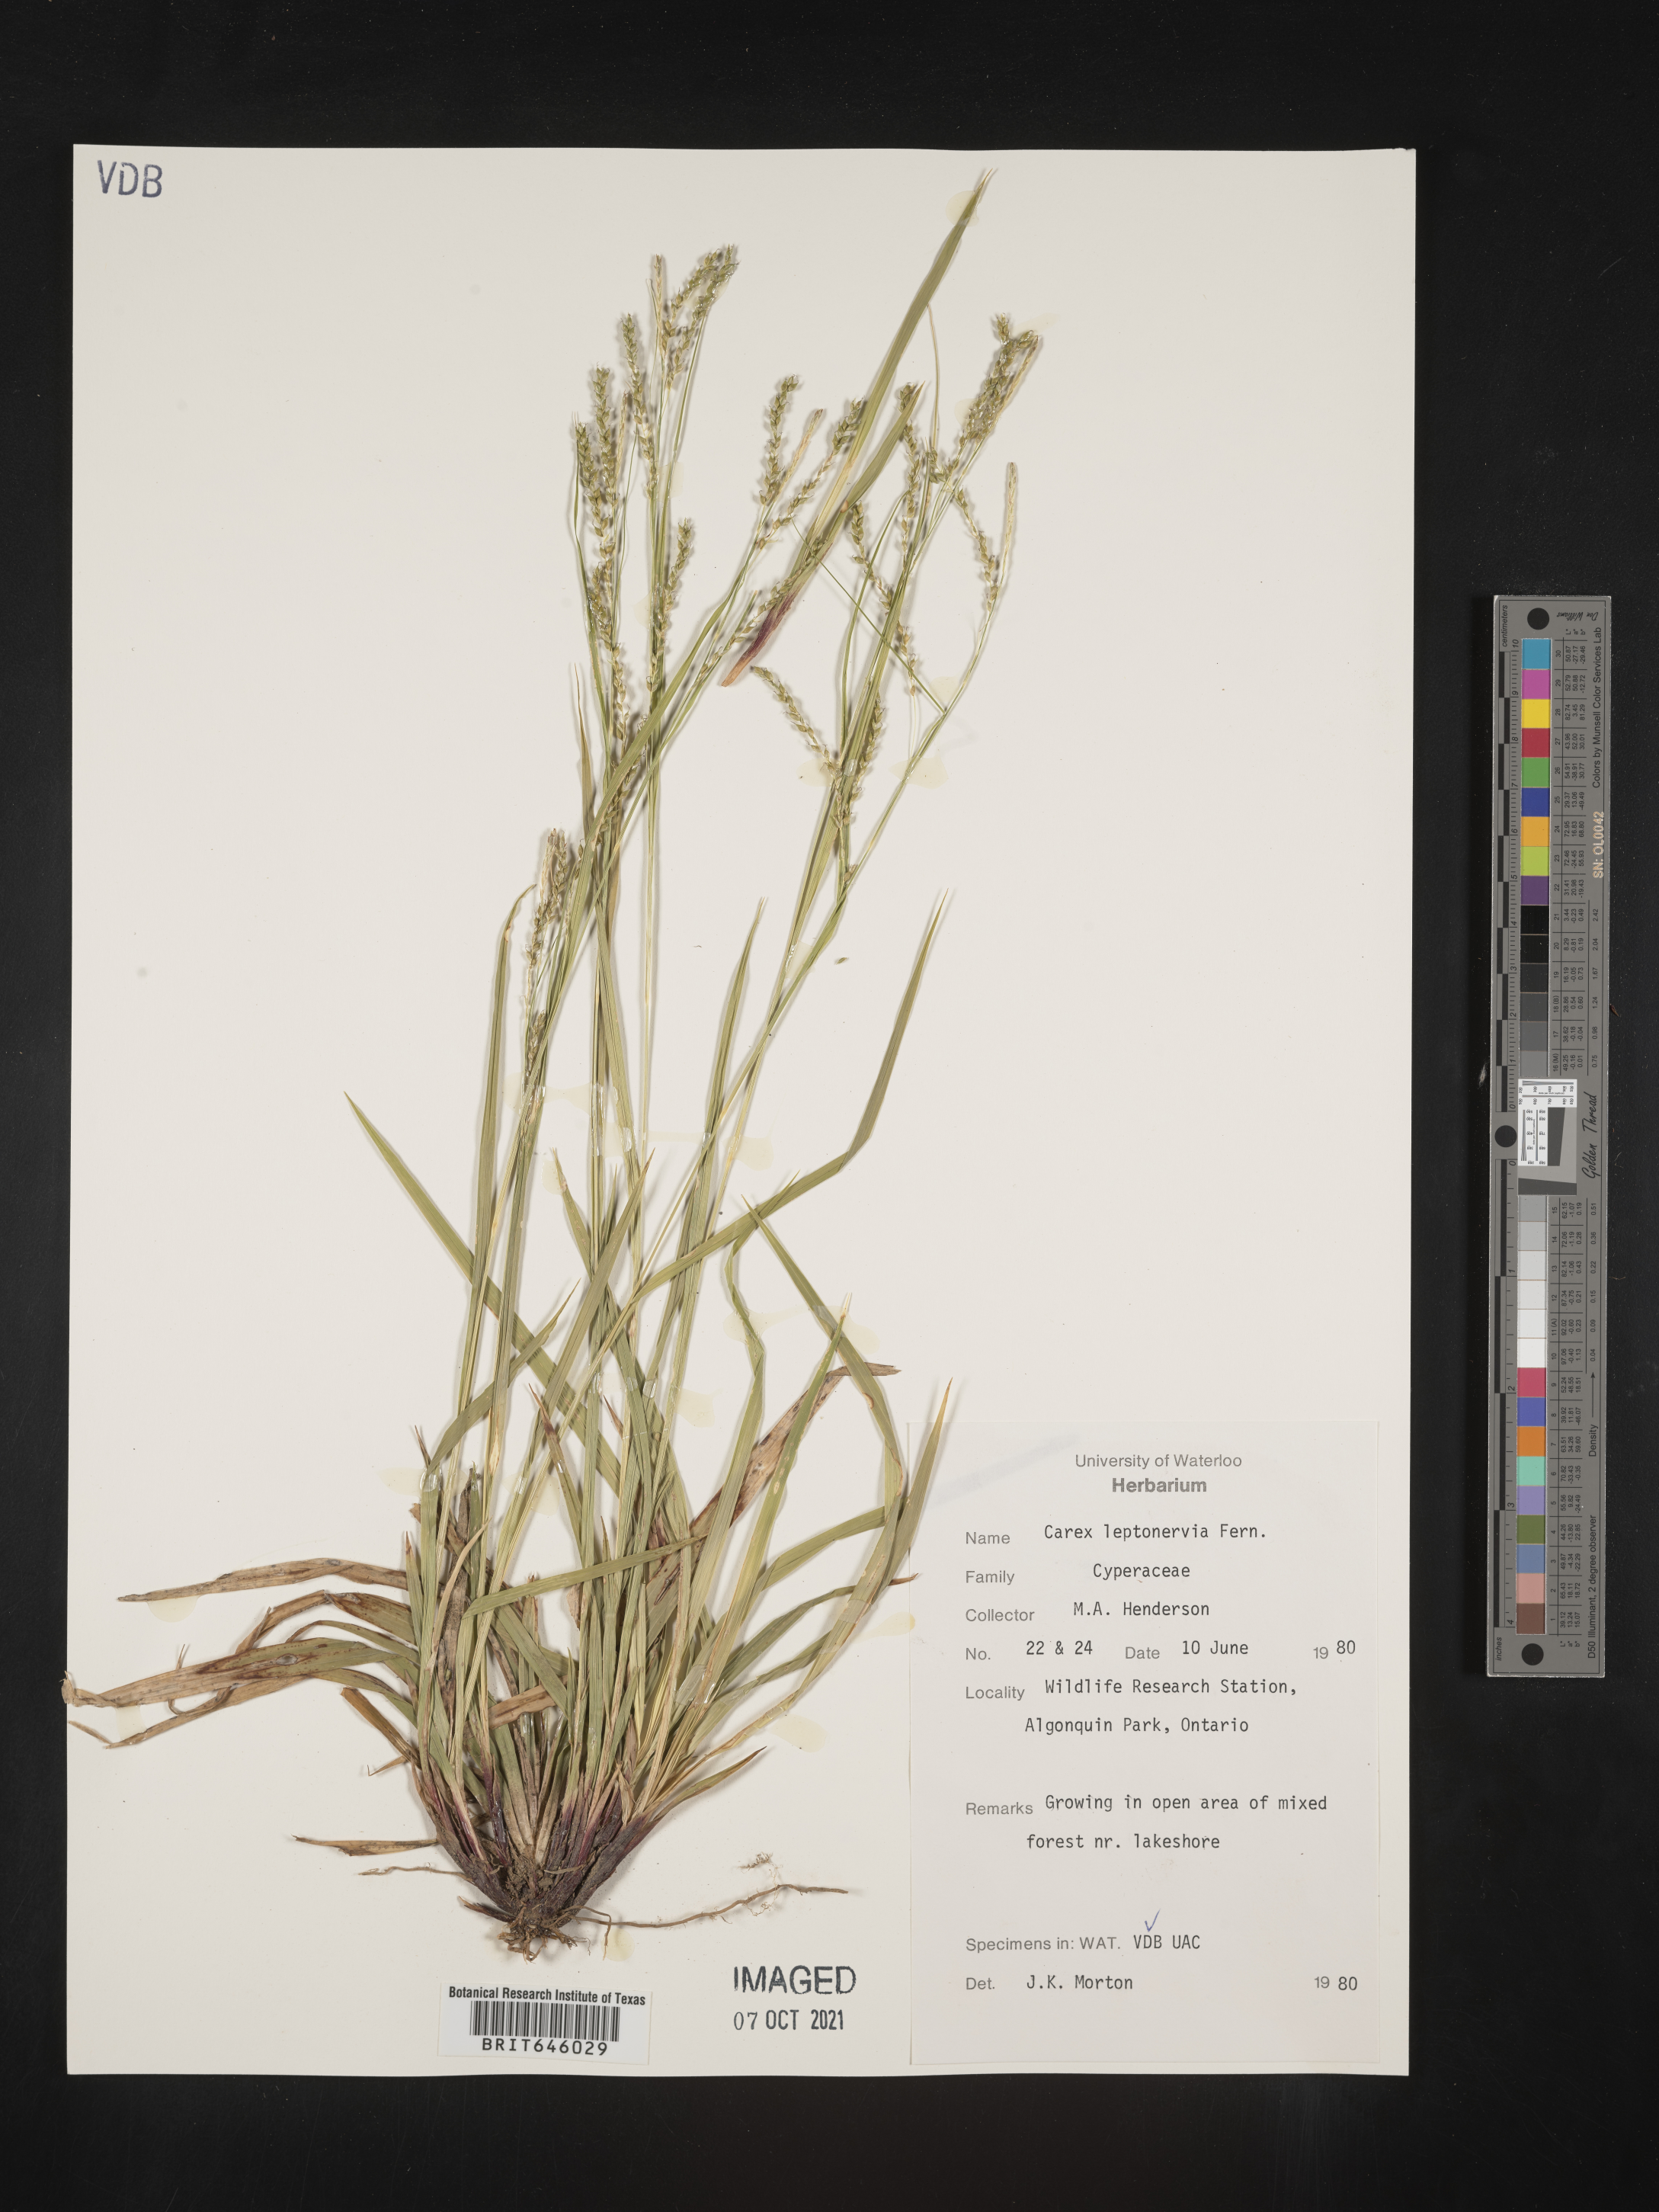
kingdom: Plantae
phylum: Tracheophyta
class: Liliopsida
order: Poales
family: Cyperaceae
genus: Carex
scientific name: Carex leptonervia
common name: Few-nerved wood sedge
